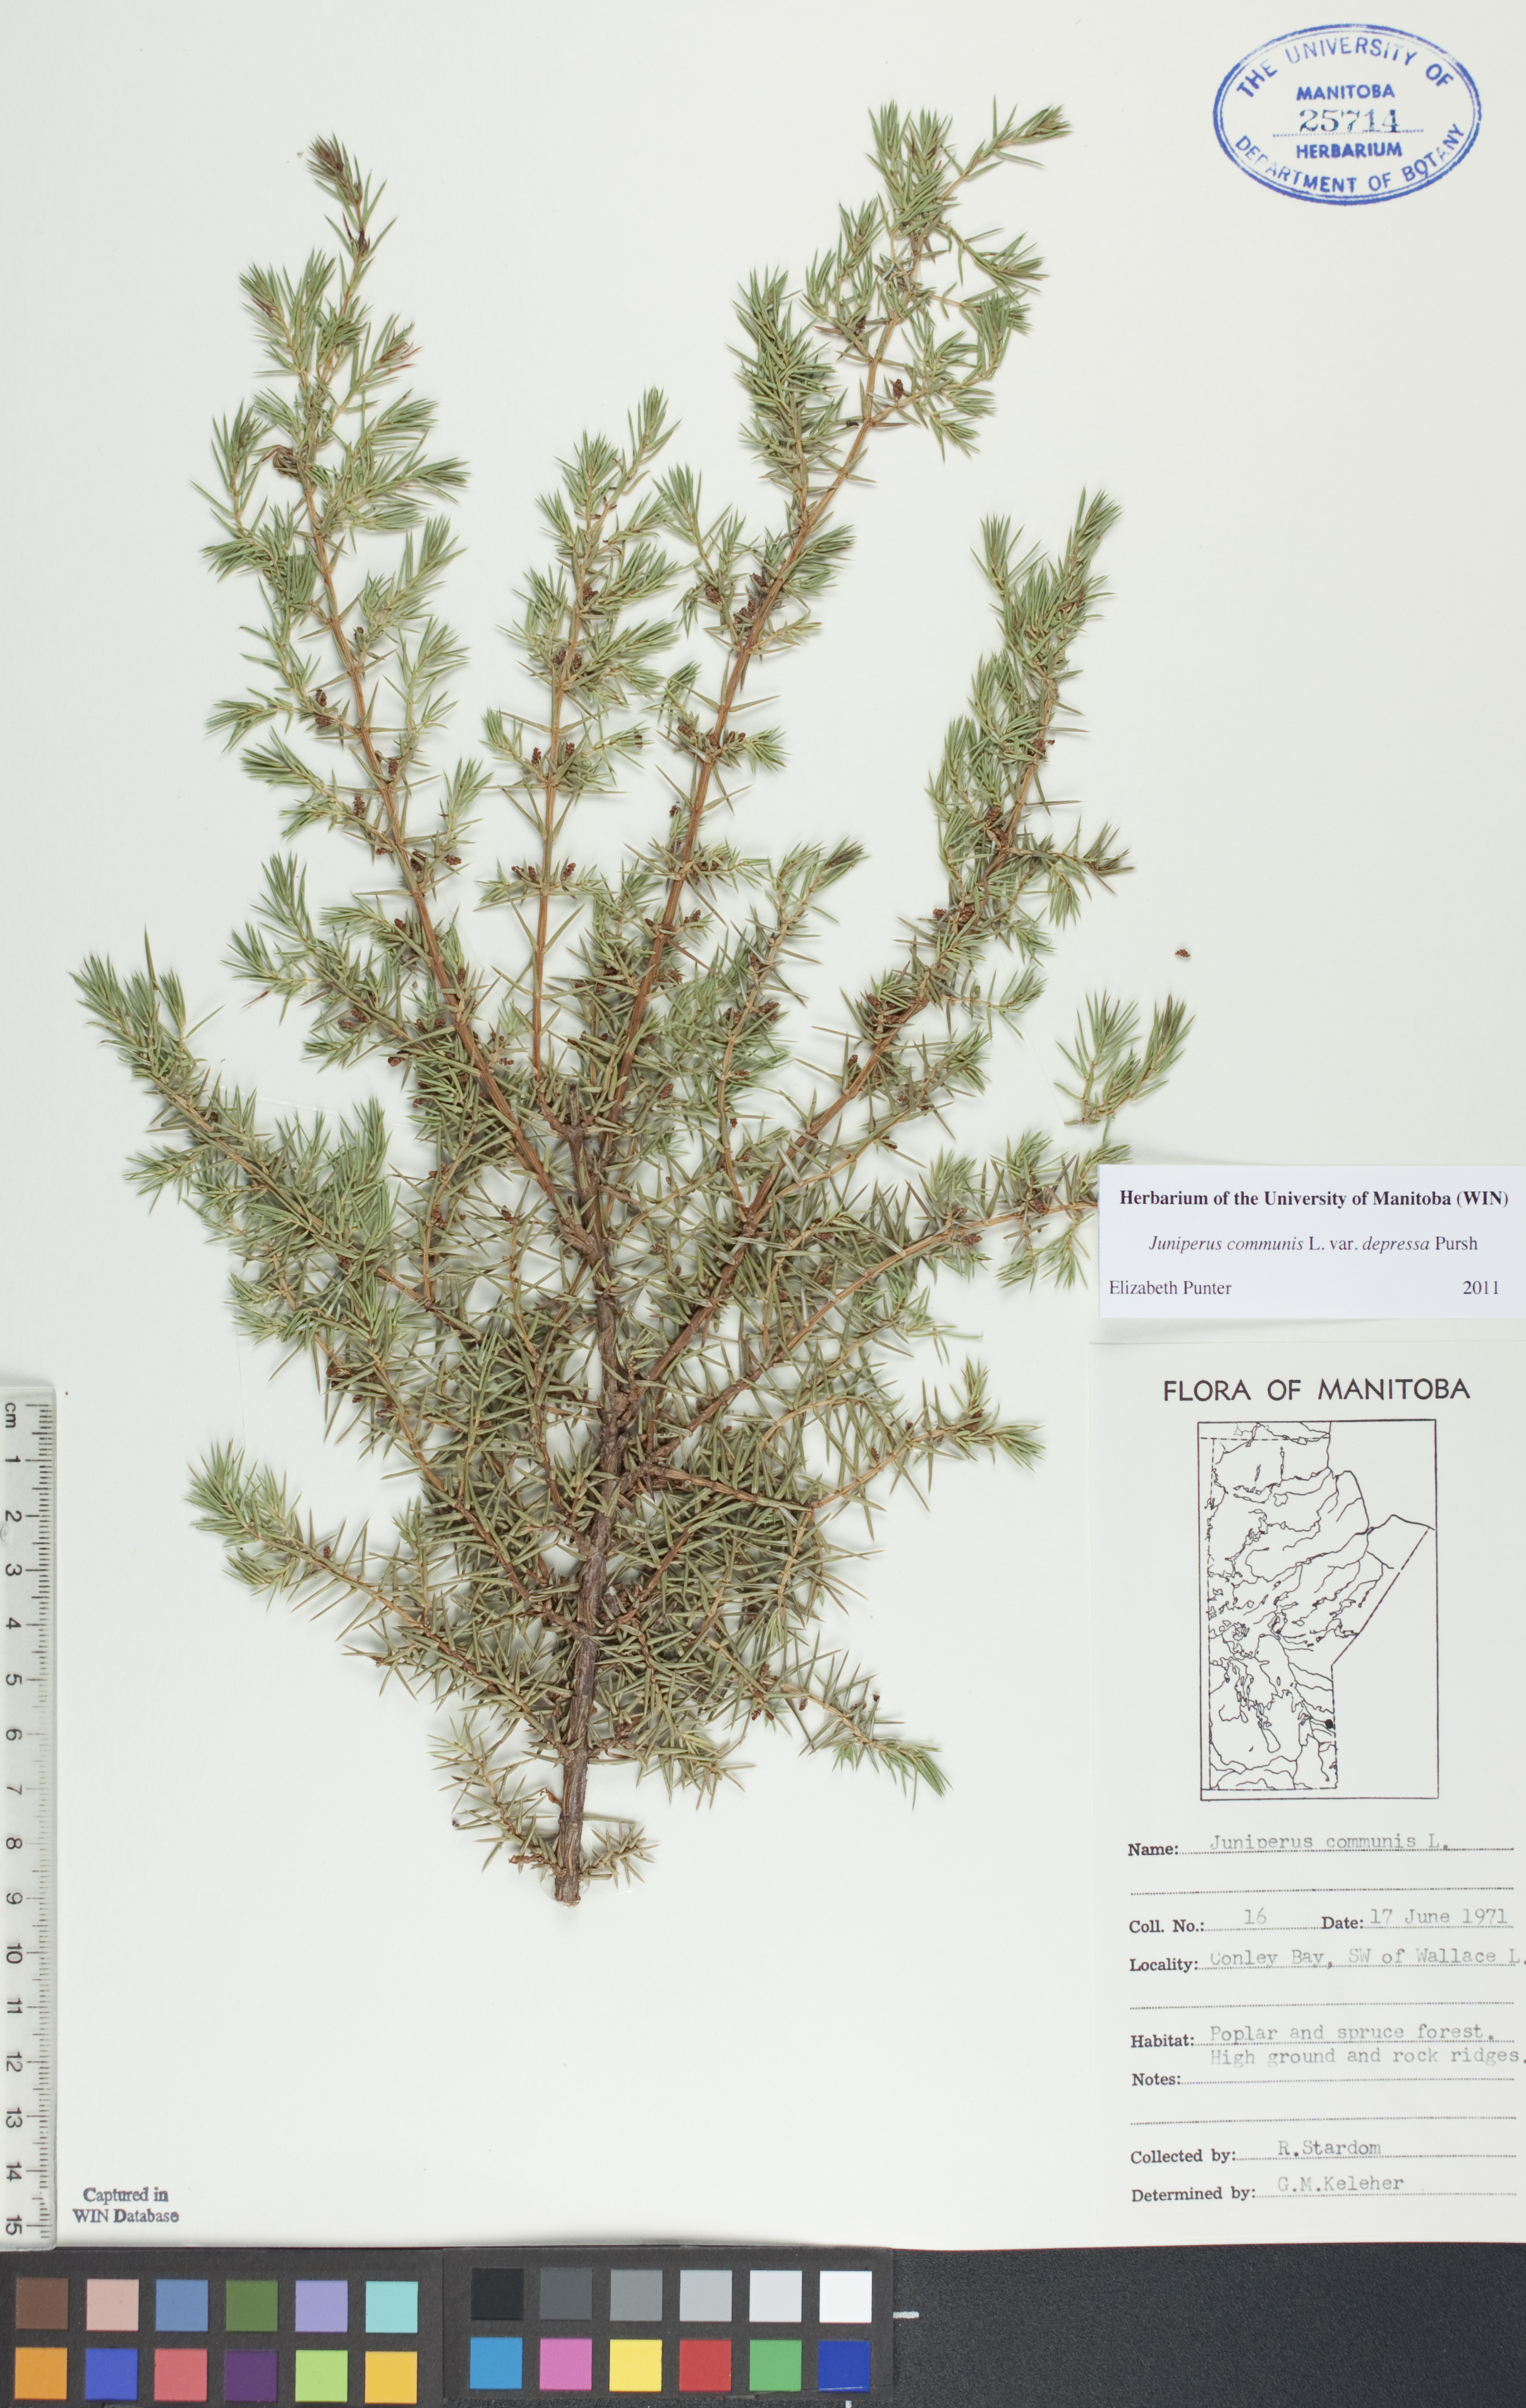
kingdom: Plantae
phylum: Tracheophyta
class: Pinopsida
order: Pinales
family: Cupressaceae
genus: Juniperus
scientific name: Juniperus communis
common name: Common juniper
